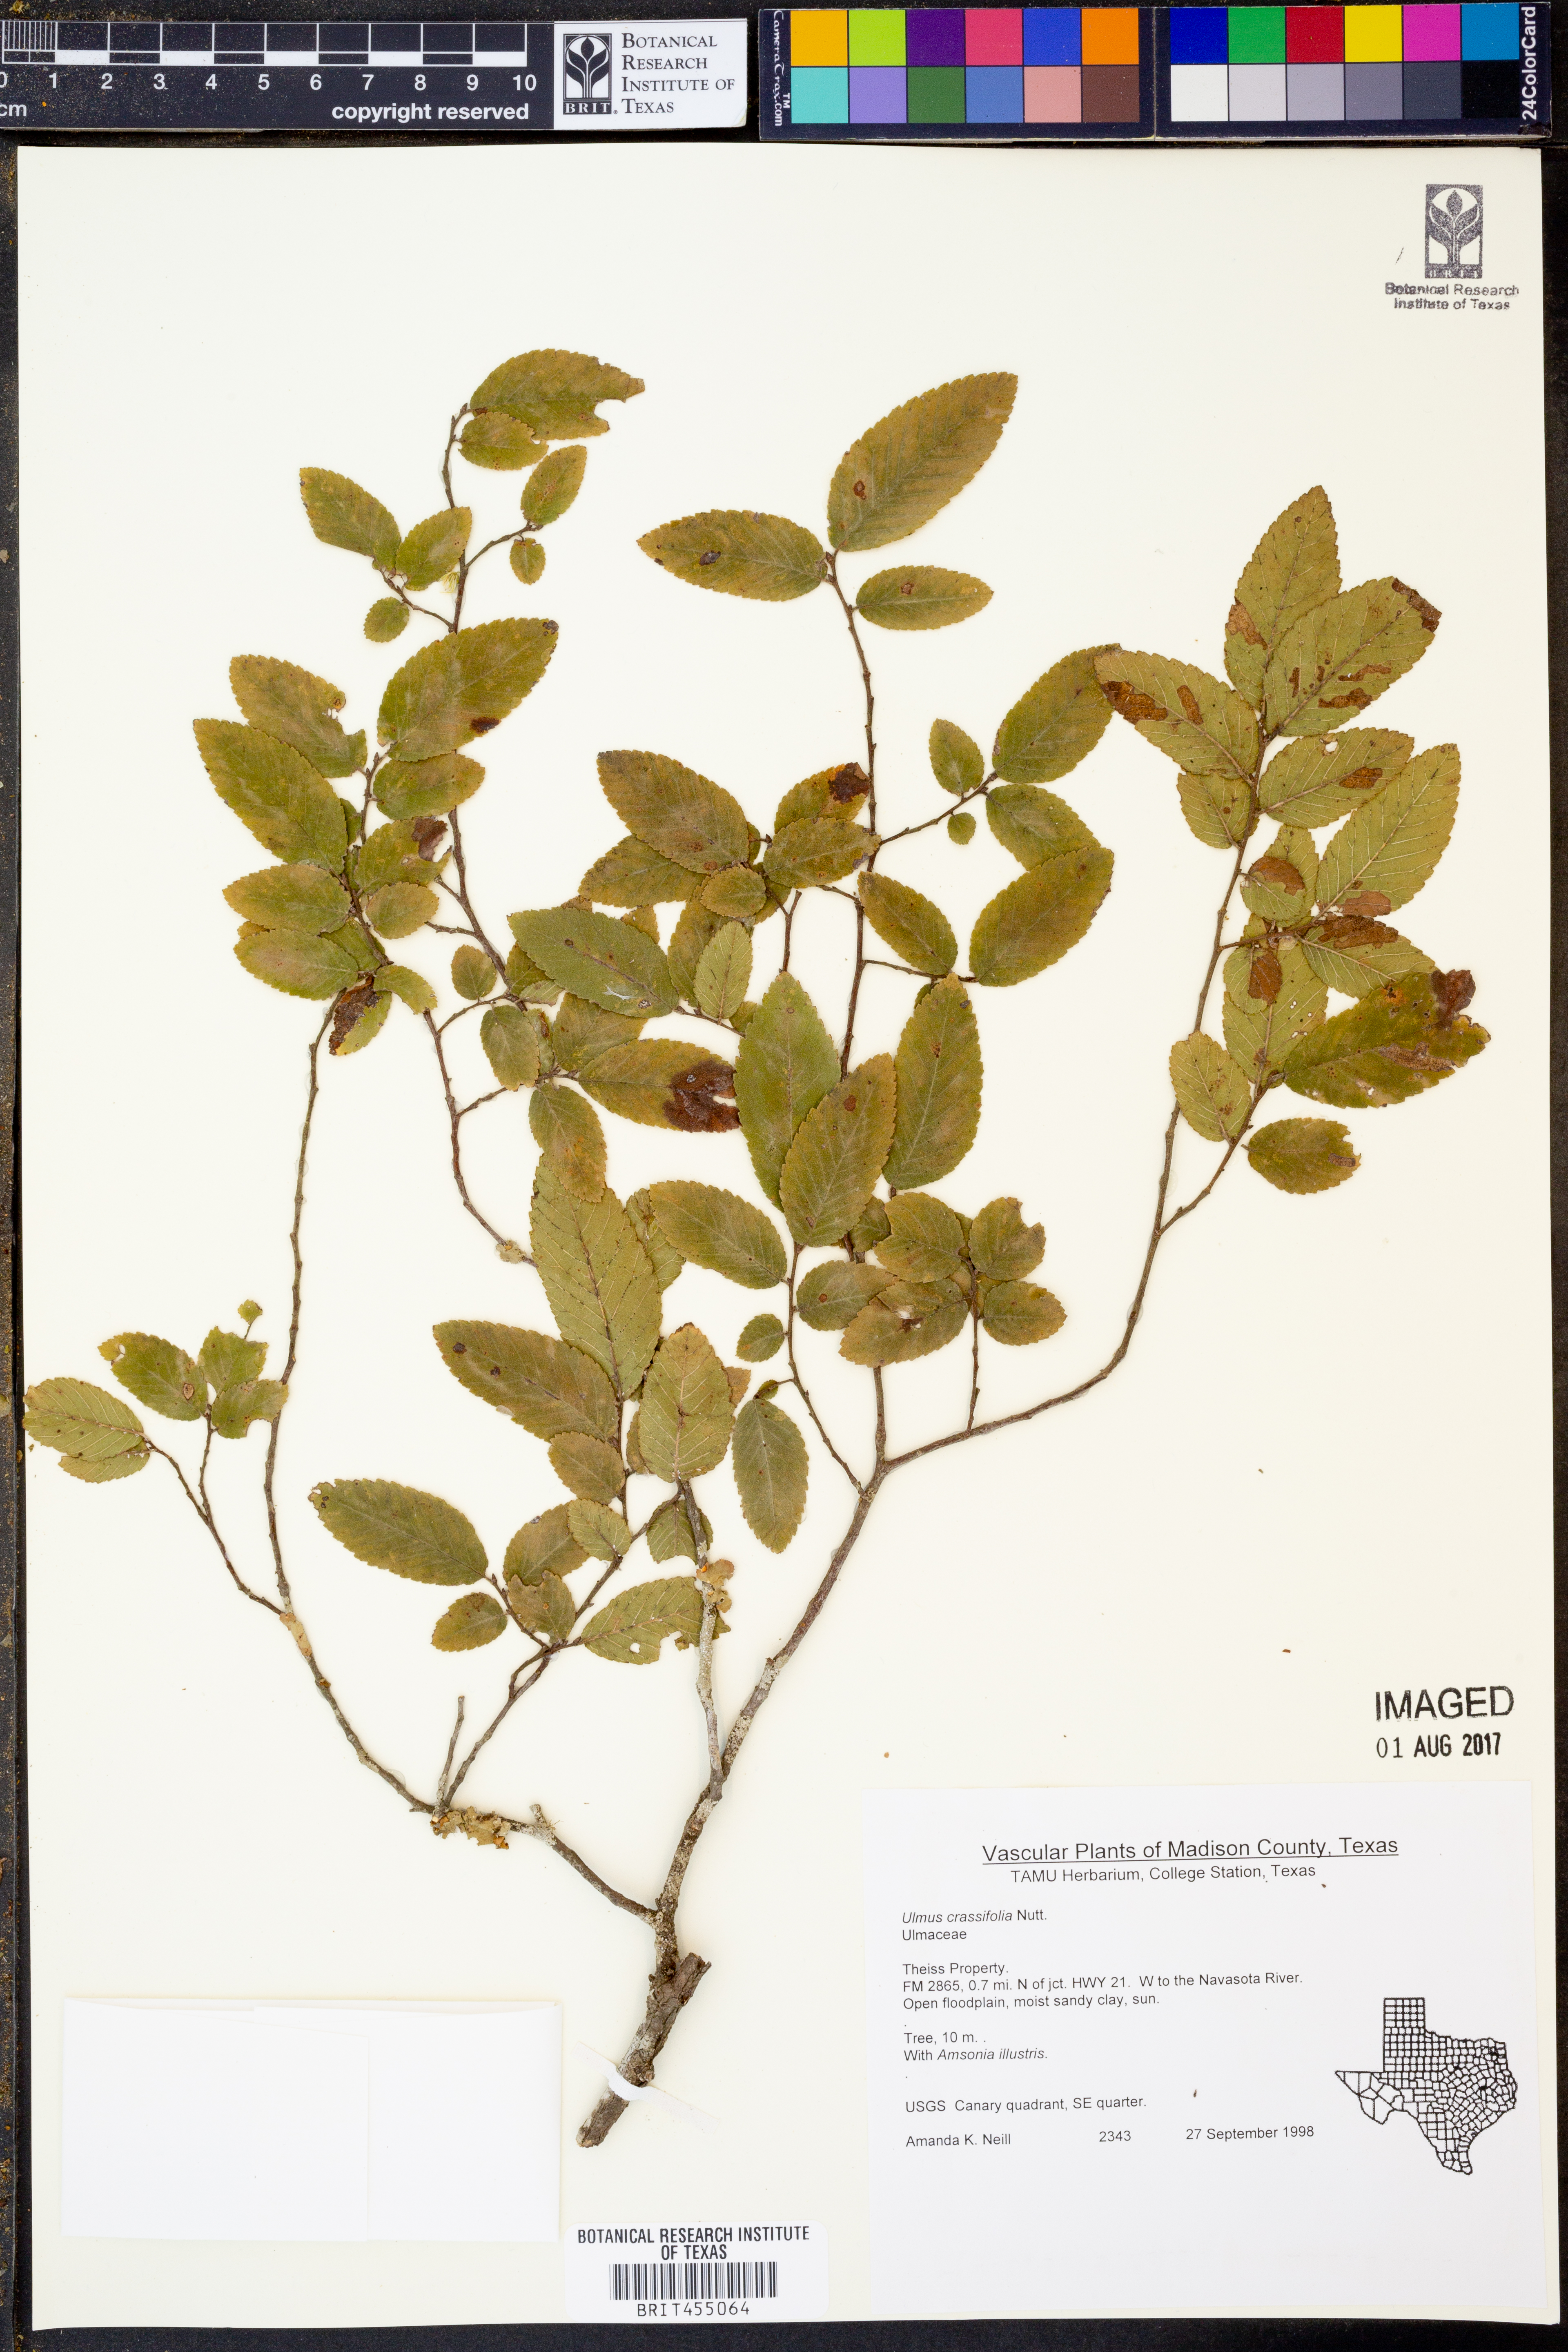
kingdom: Plantae
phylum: Tracheophyta
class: Magnoliopsida
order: Rosales
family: Ulmaceae
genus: Ulmus
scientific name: Ulmus crassifolia
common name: Basket elm
